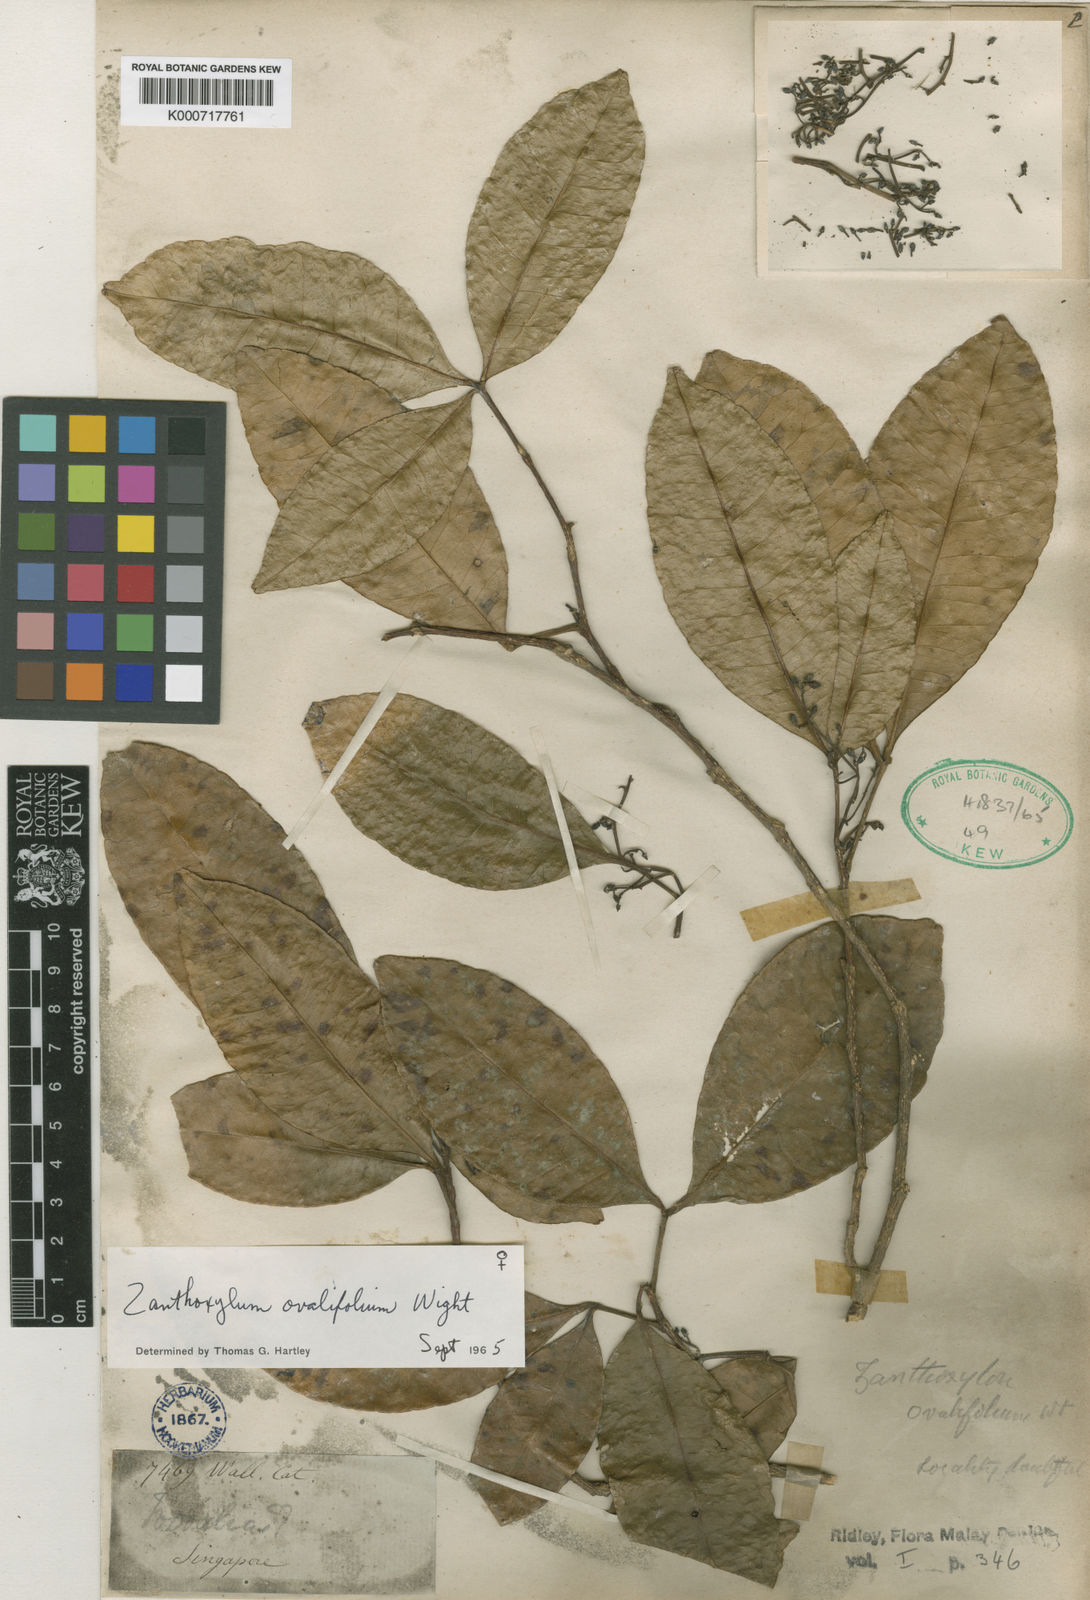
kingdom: Plantae
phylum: Tracheophyta
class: Magnoliopsida
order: Sapindales
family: Rutaceae
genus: Zanthoxylum
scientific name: Zanthoxylum ovalifolium
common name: Thorny yellowwood
